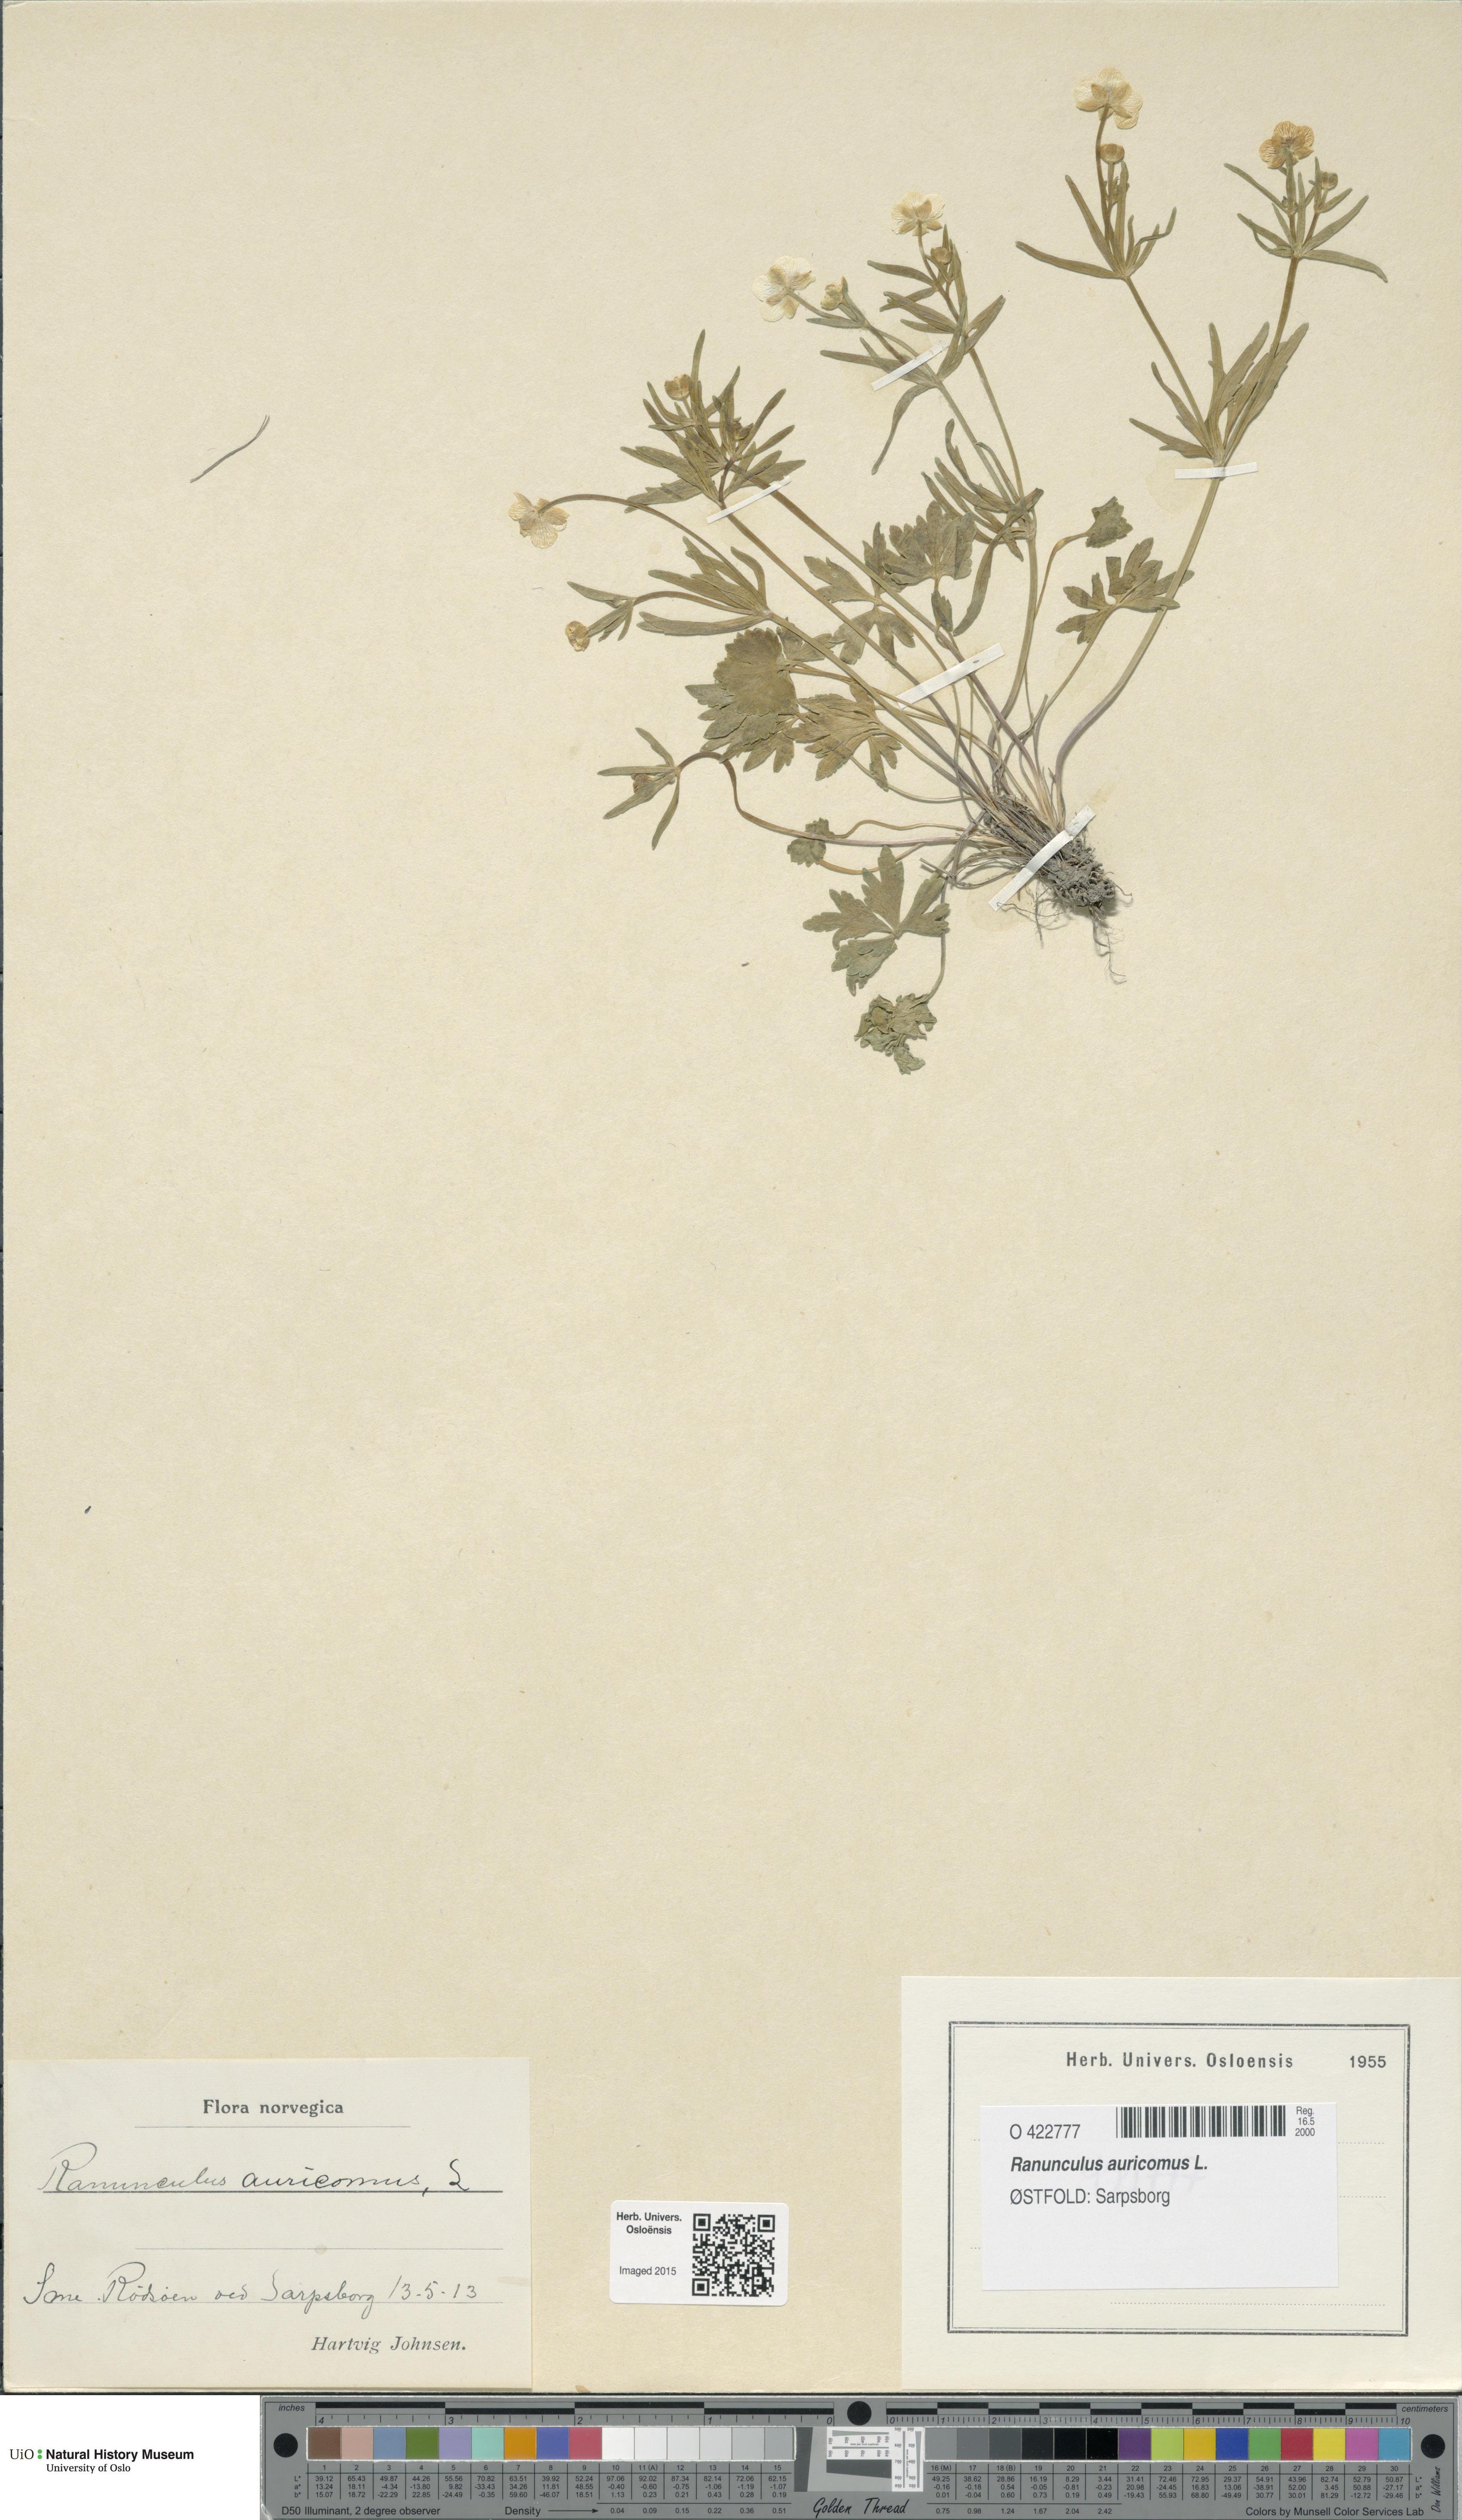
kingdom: Plantae
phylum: Tracheophyta
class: Magnoliopsida
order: Ranunculales
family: Ranunculaceae
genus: Ranunculus
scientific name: Ranunculus auricomus
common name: Goldilocks buttercup
